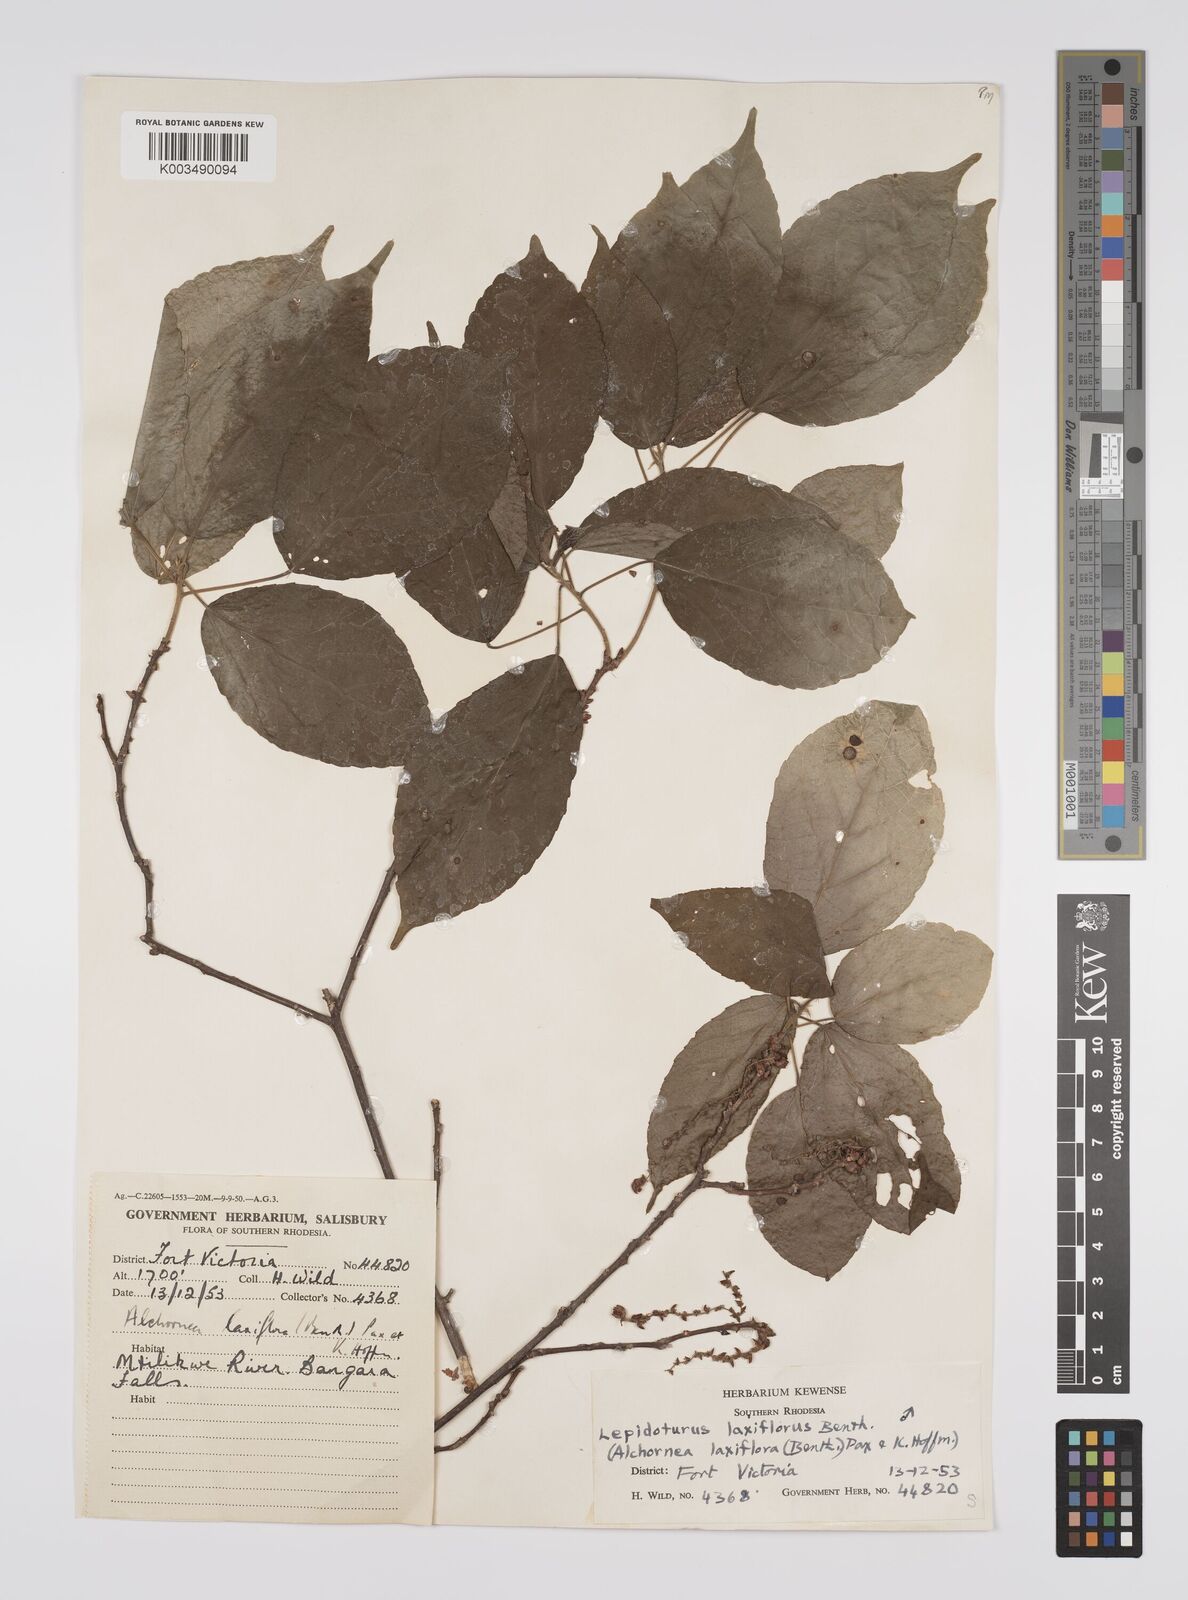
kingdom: Plantae
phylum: Tracheophyta
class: Magnoliopsida
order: Malpighiales
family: Euphorbiaceae
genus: Alchornea
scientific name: Alchornea laxiflora
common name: Lowveld bead-string
